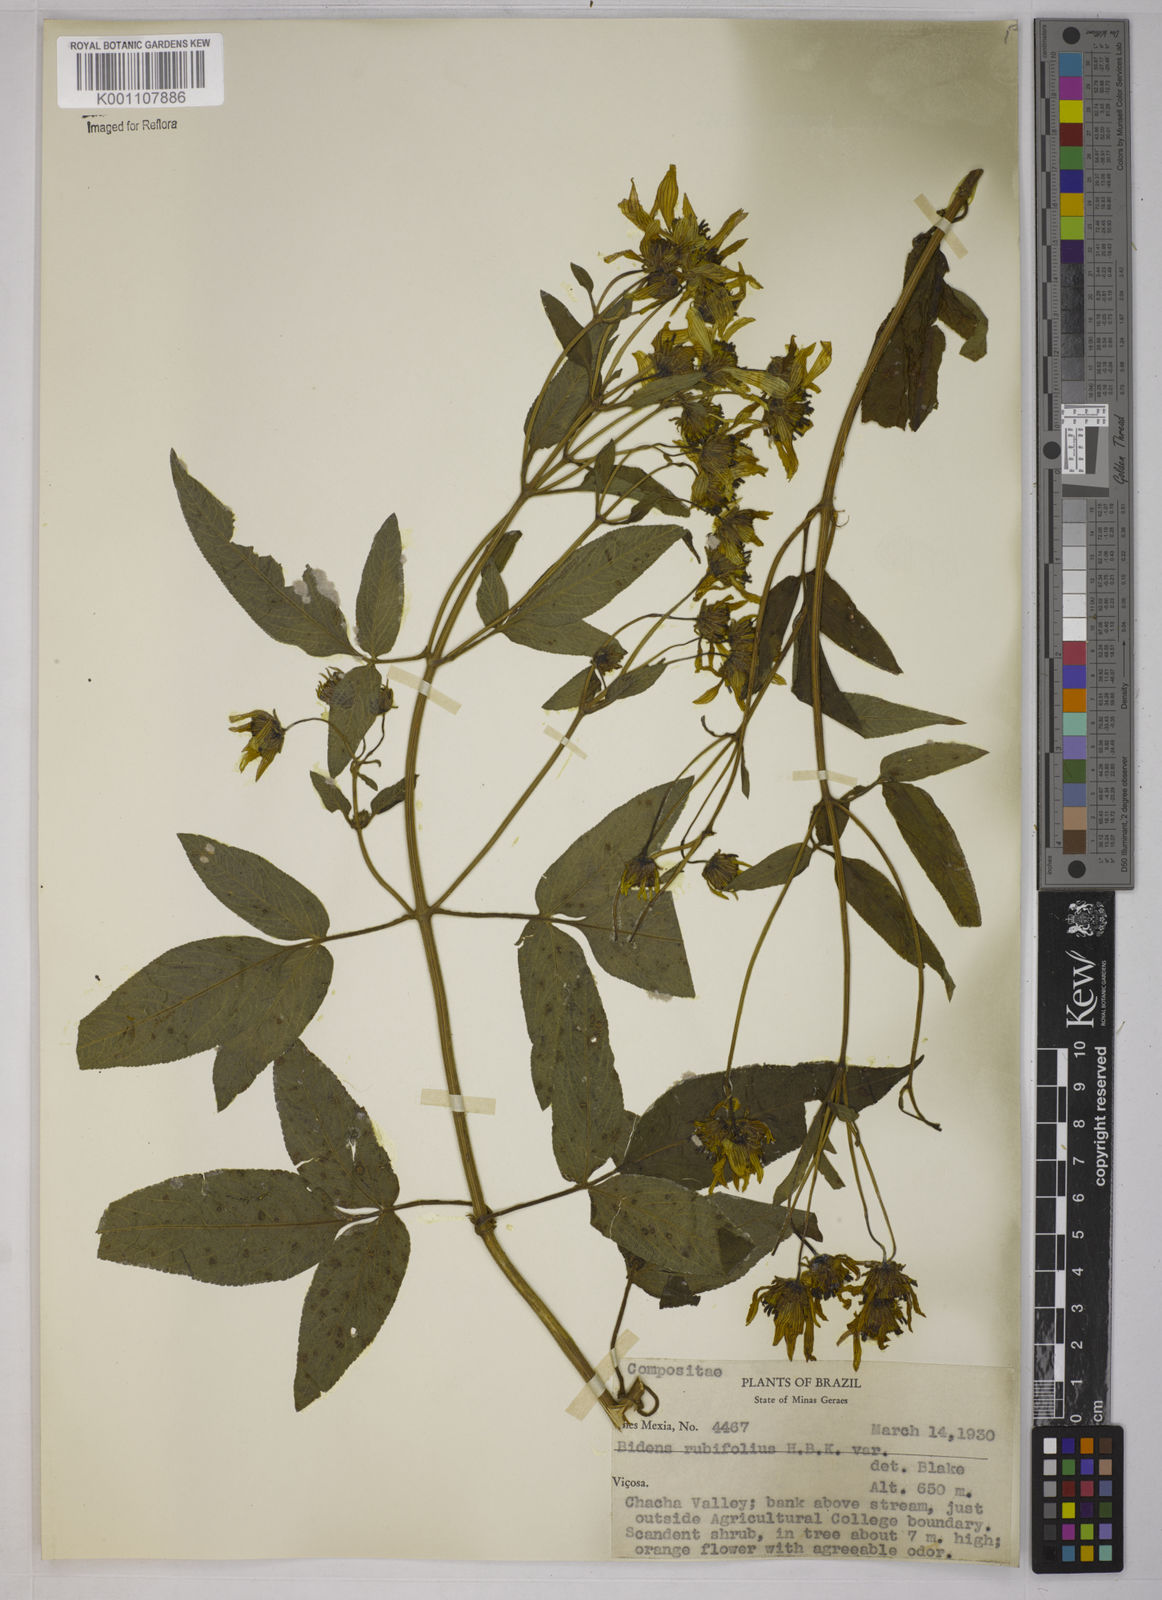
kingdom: Plantae
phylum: Tracheophyta
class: Magnoliopsida
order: Asterales
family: Asteraceae
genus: Bidens
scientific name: Bidens segetum
